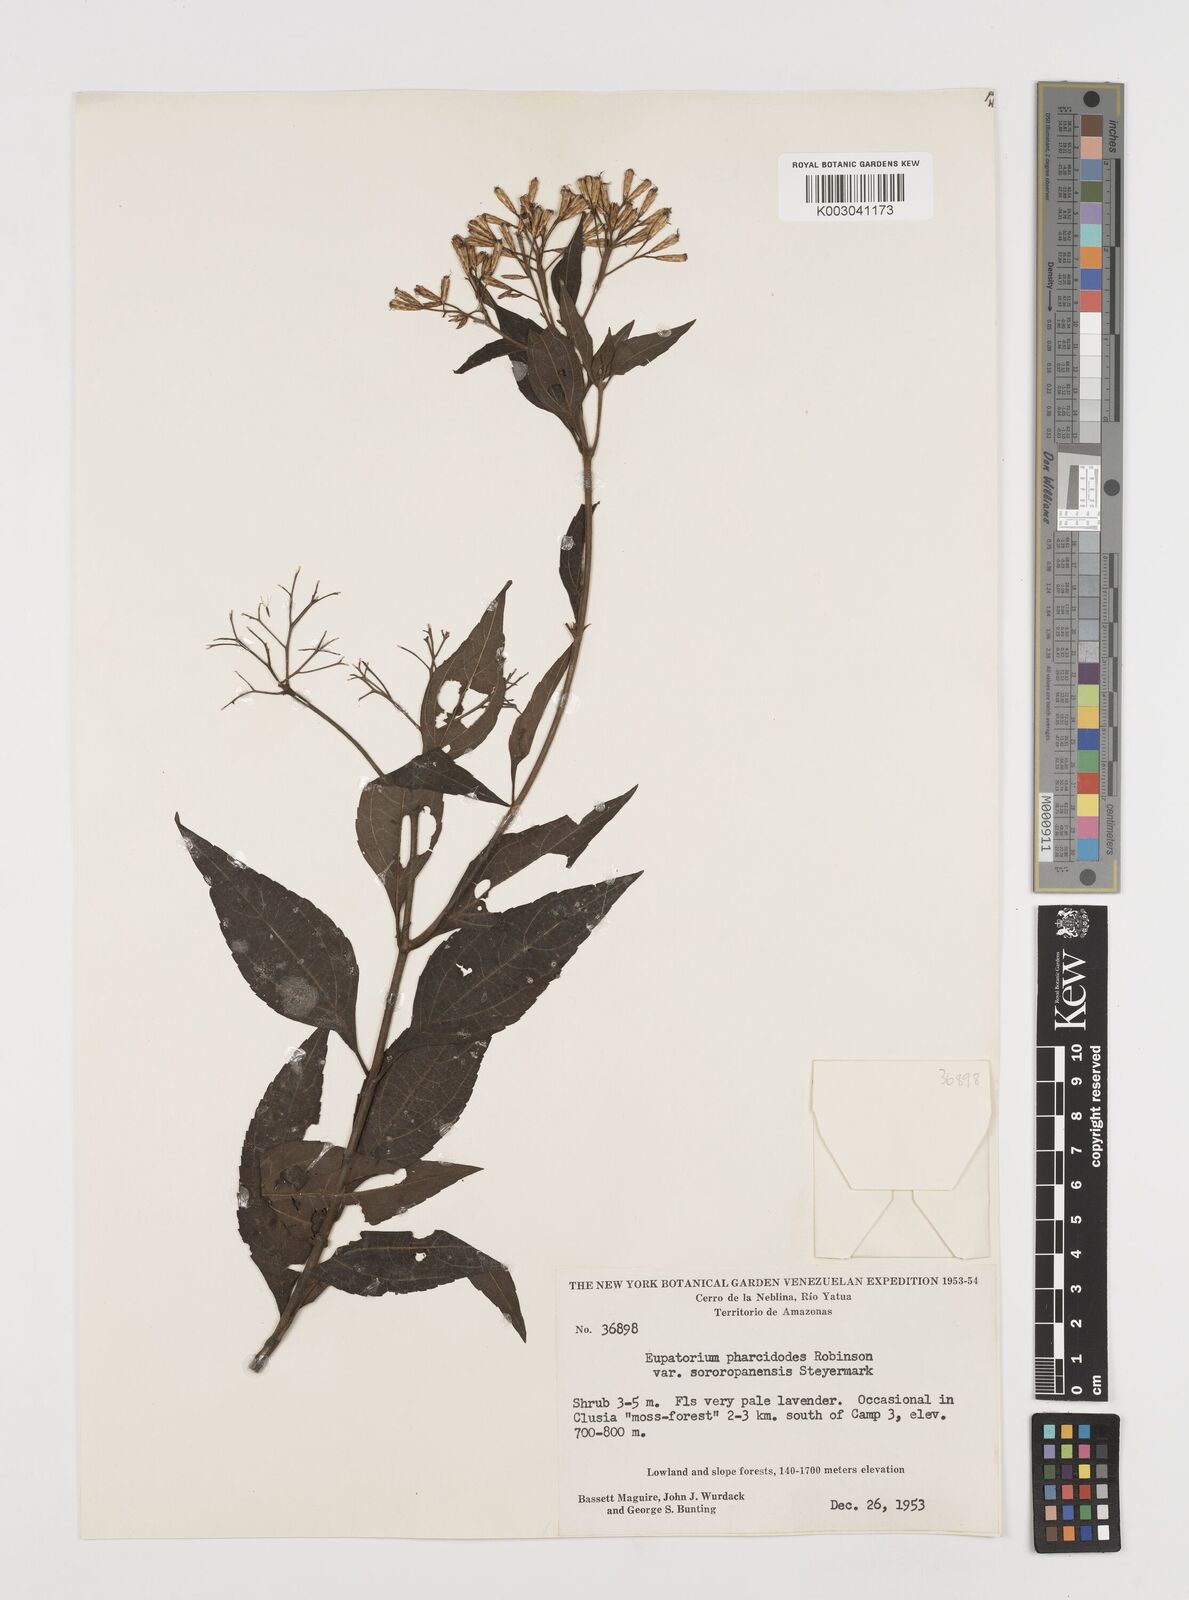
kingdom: Plantae
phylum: Tracheophyta
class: Magnoliopsida
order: Asterales
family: Asteraceae
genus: Chromolaena
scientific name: Chromolaena pharcidodes
